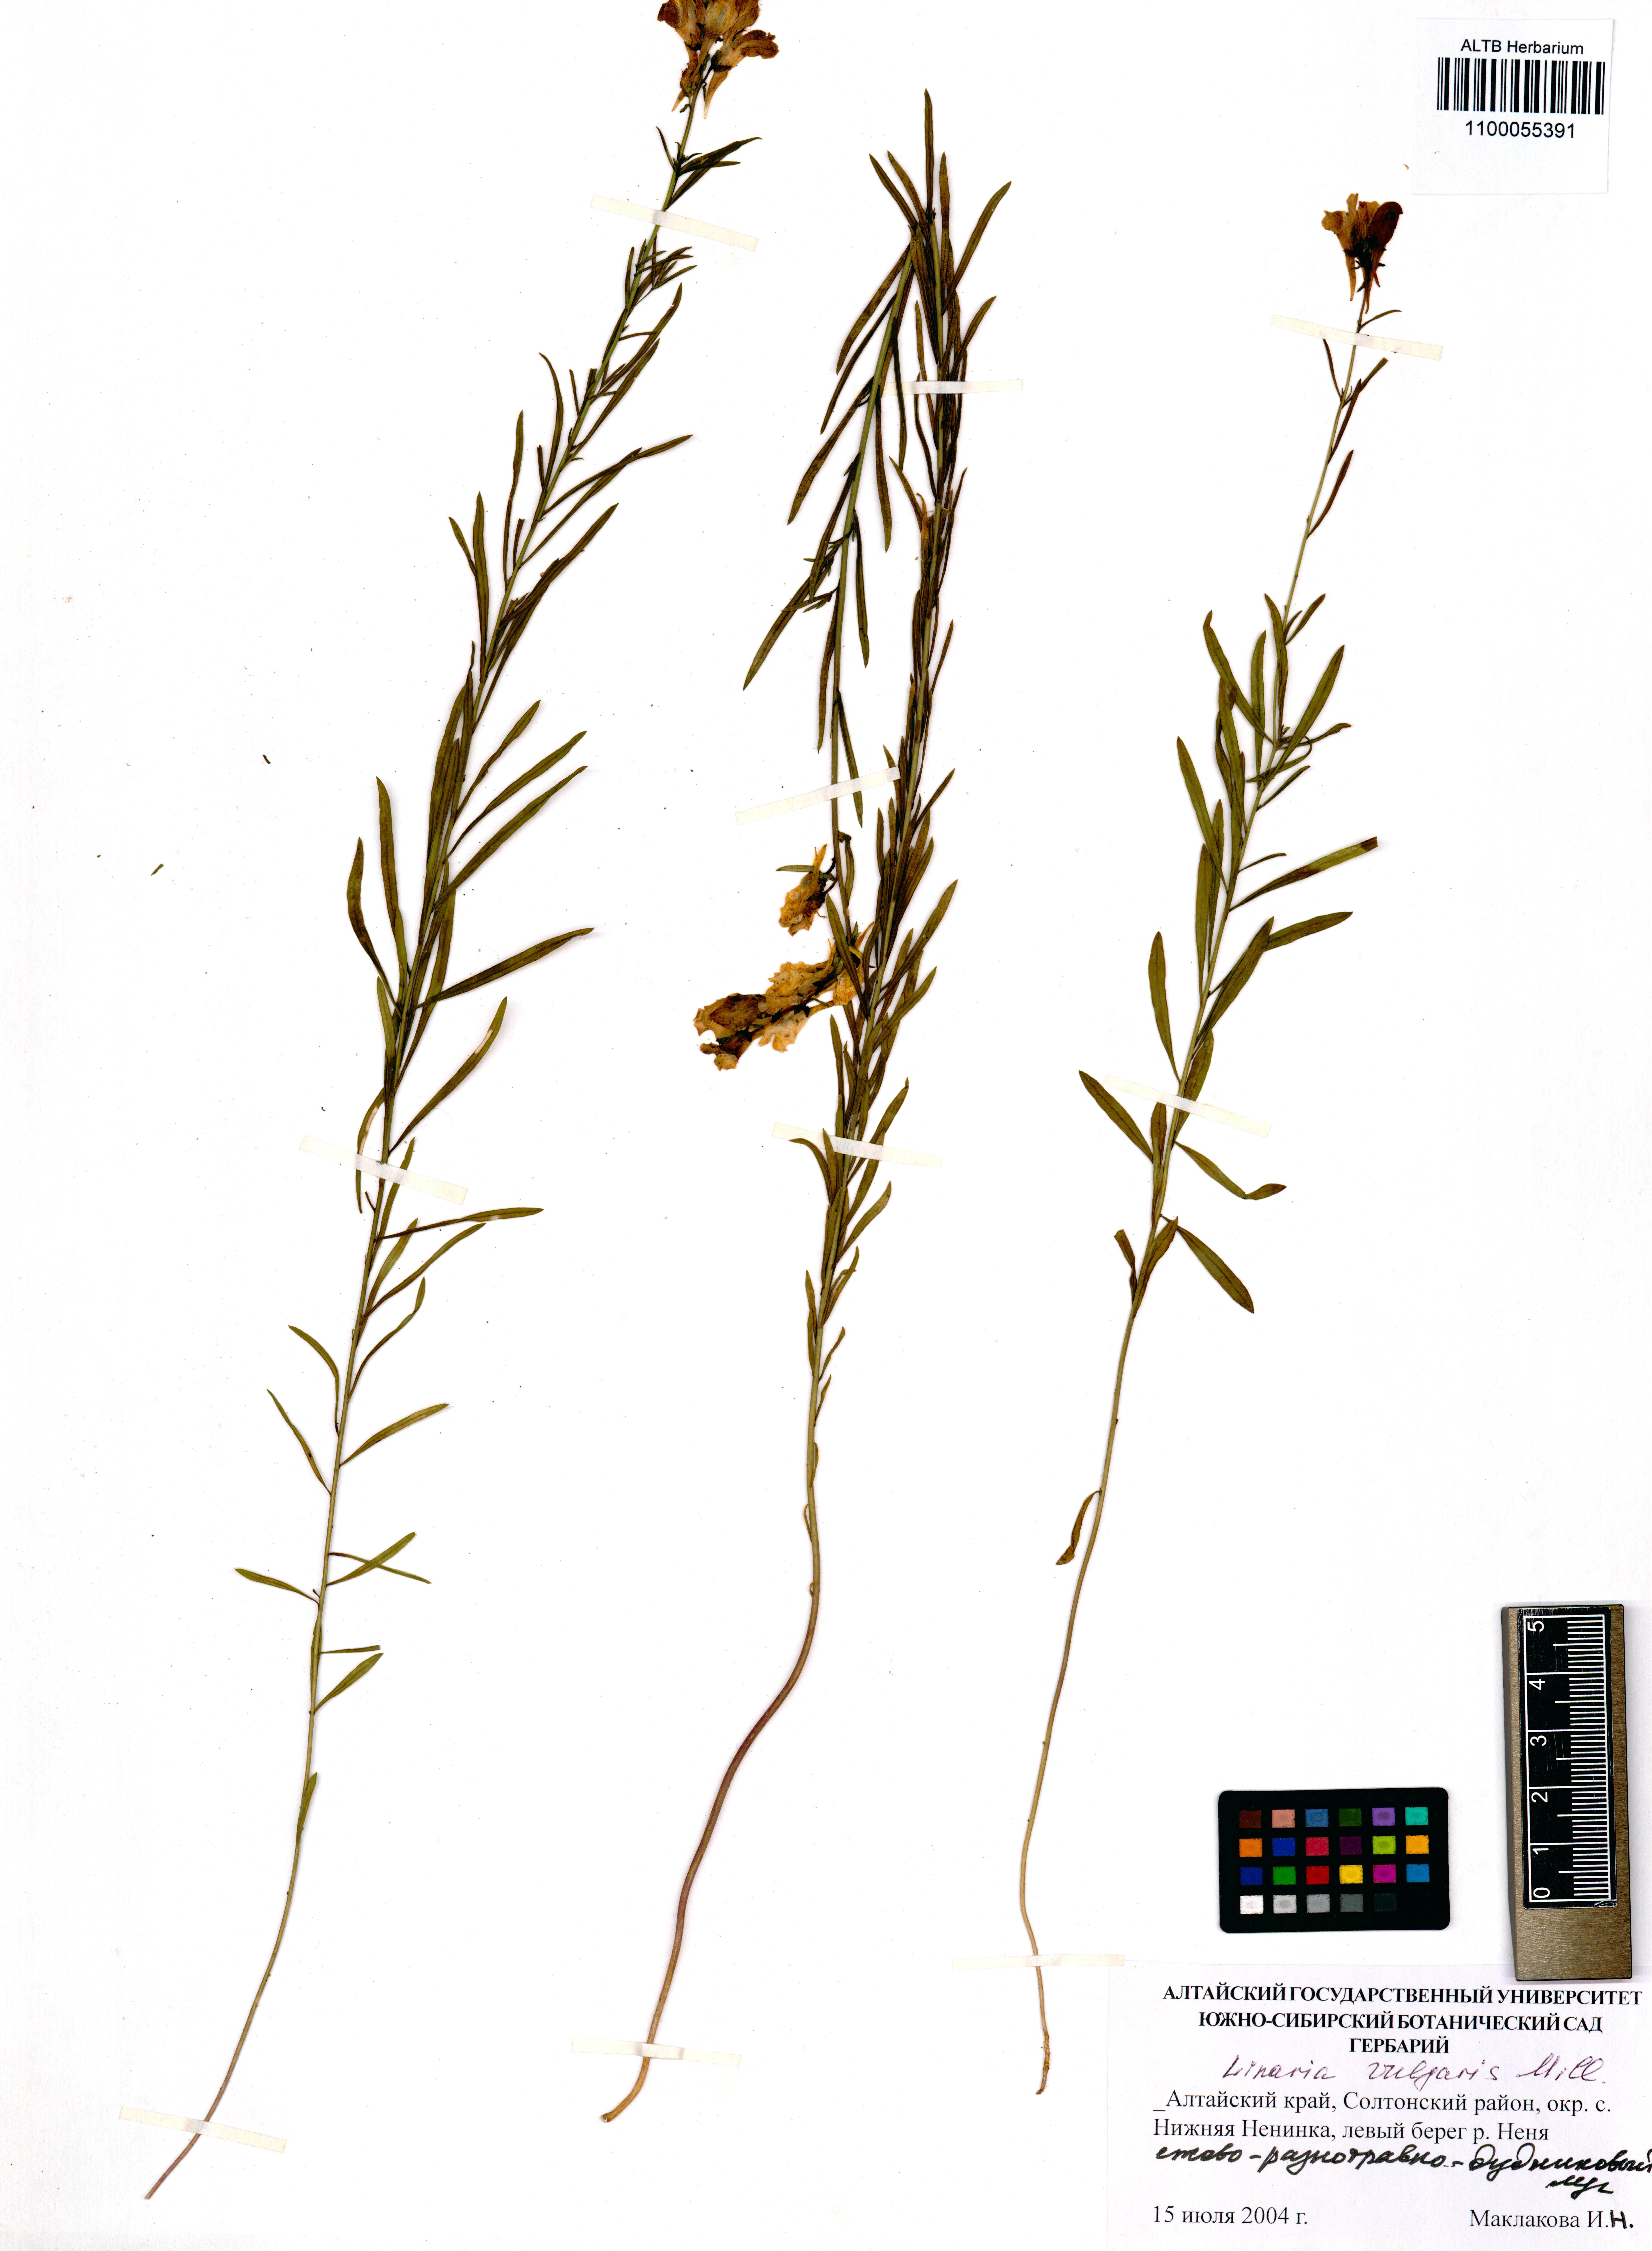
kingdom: Plantae
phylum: Tracheophyta
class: Magnoliopsida
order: Lamiales
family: Plantaginaceae
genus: Linaria
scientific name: Linaria vulgaris
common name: Butter and eggs
